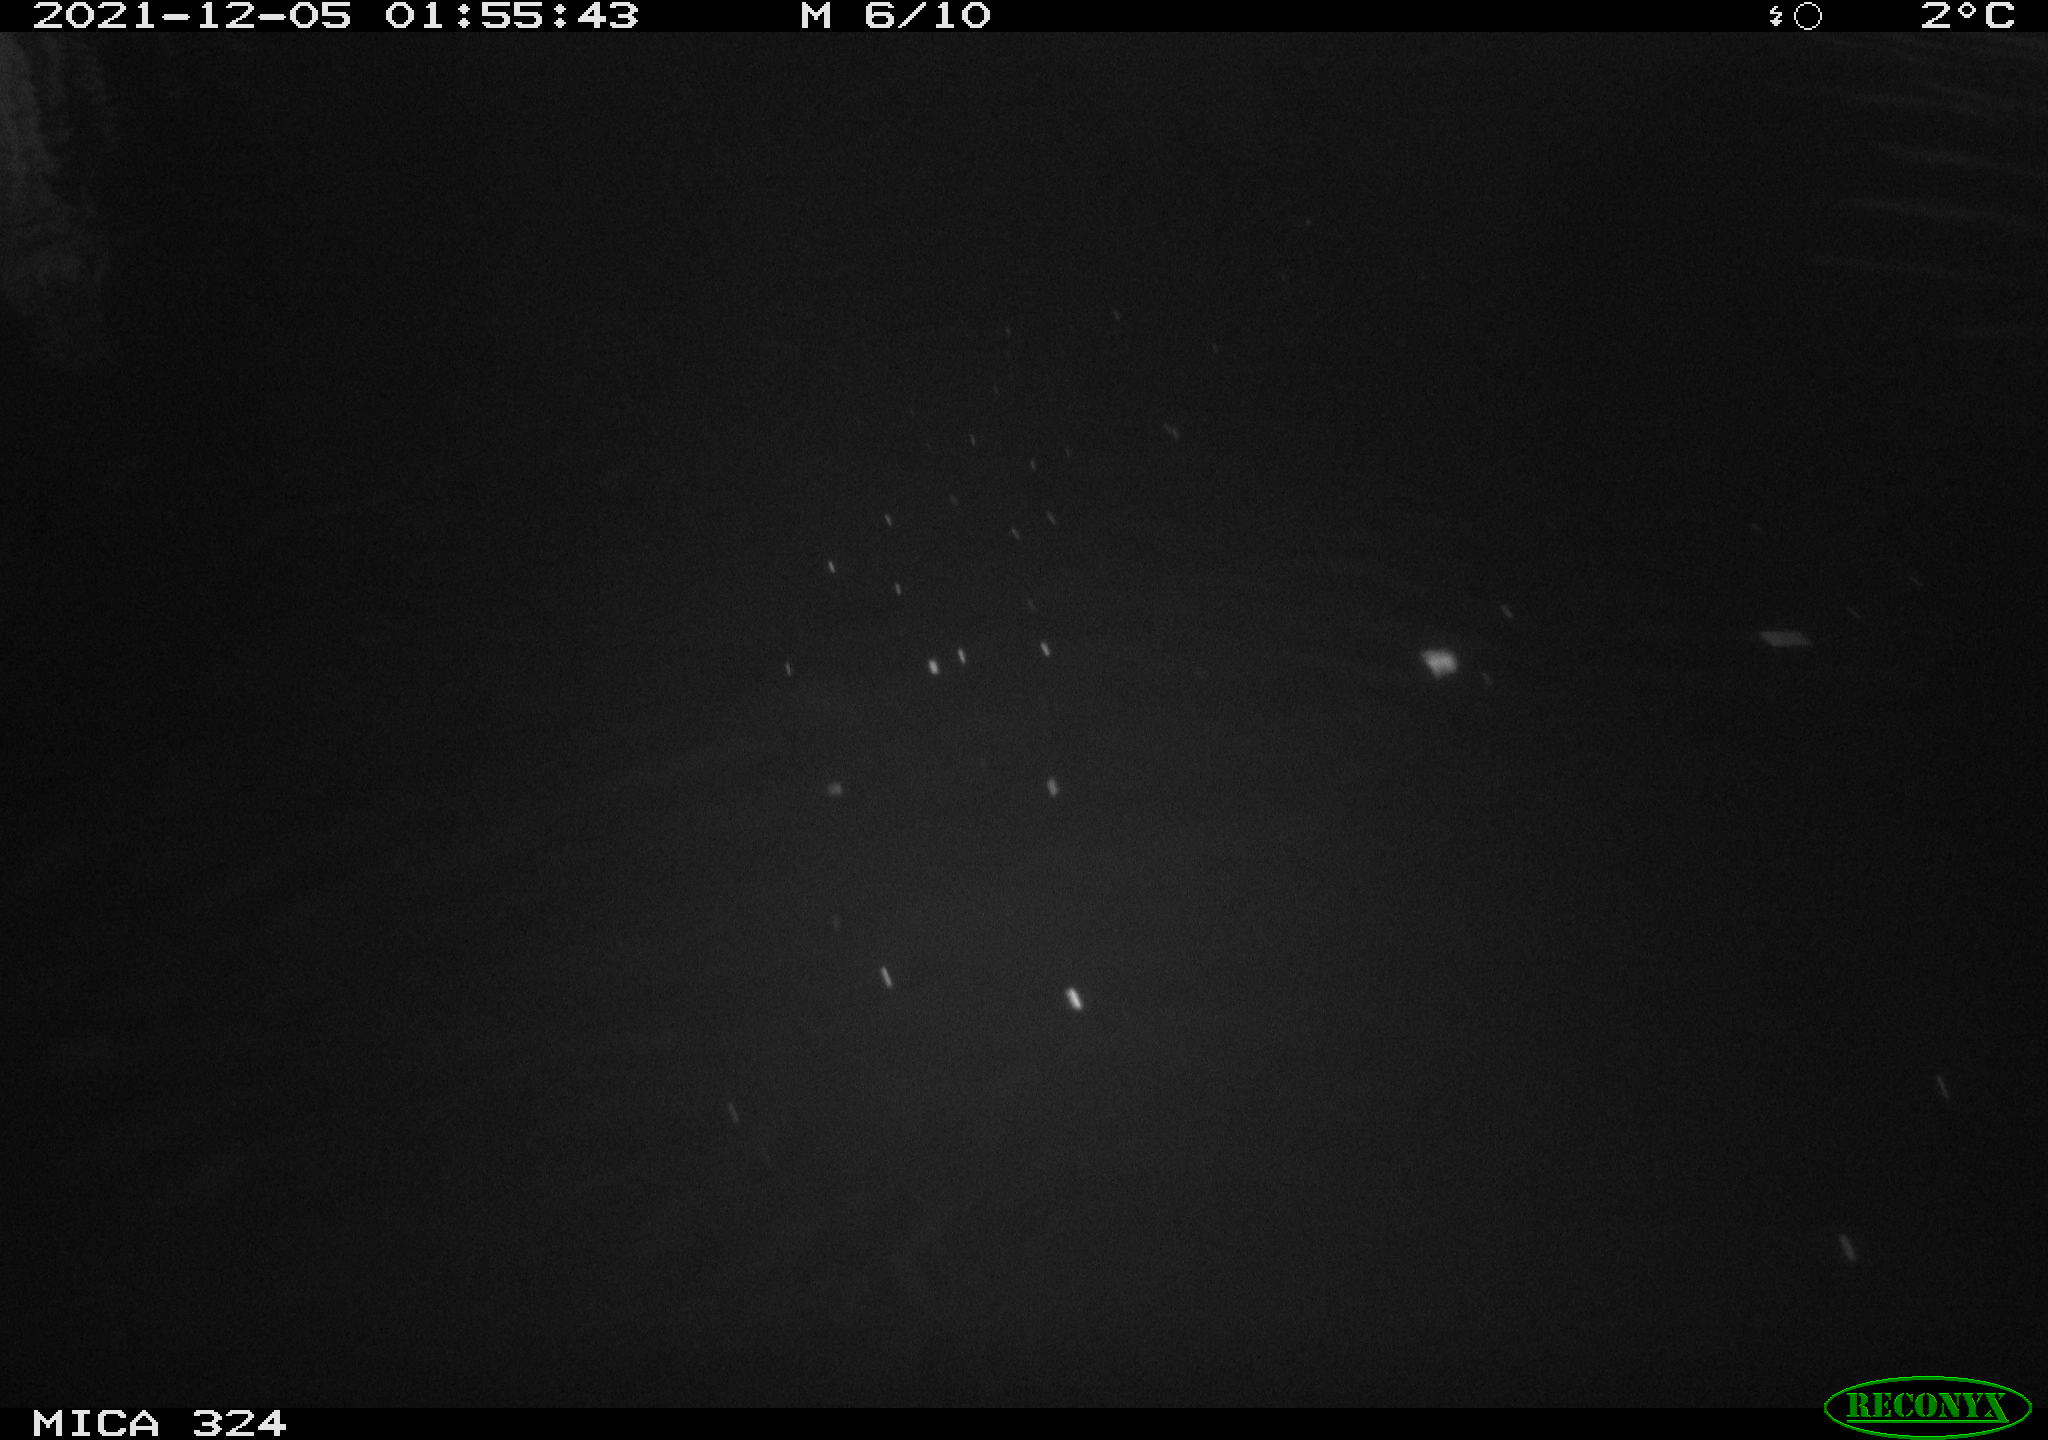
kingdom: Animalia
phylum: Chordata
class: Mammalia
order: Rodentia
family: Cricetidae
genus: Ondatra
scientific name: Ondatra zibethicus
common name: Muskrat
